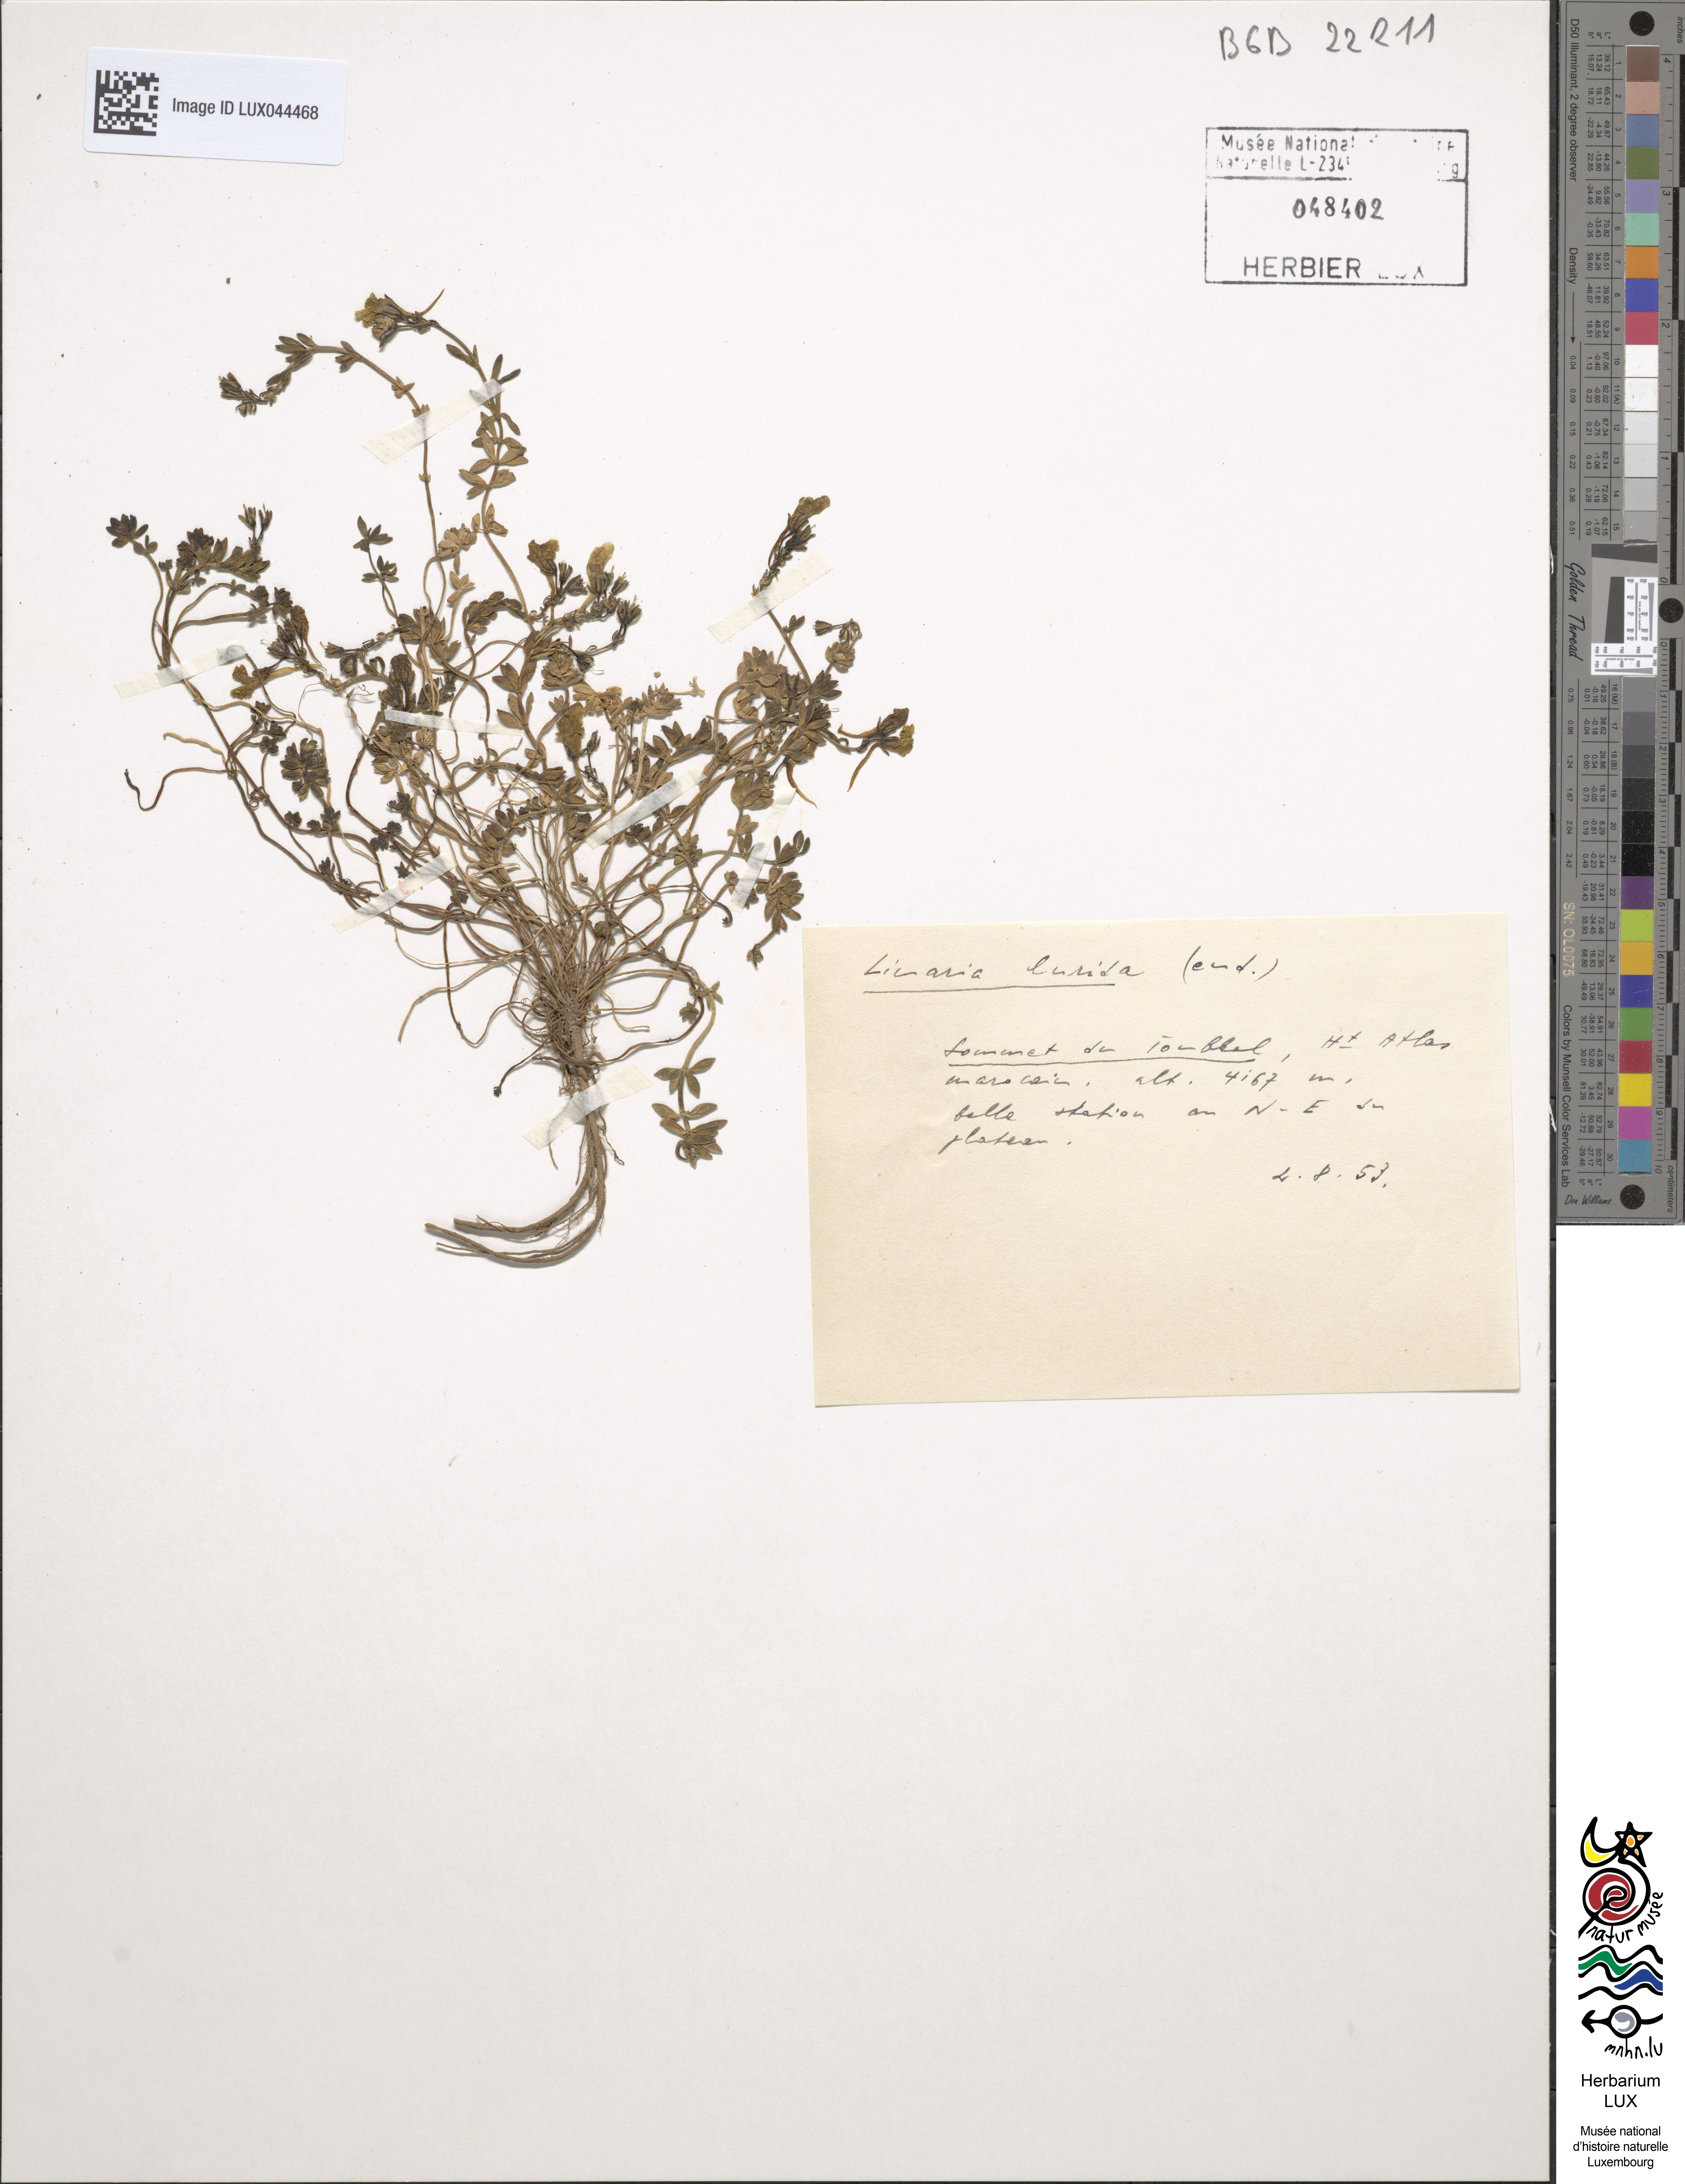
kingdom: Plantae
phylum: Tracheophyta
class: Magnoliopsida
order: Lamiales
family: Plantaginaceae
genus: Linaria
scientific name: Linaria
